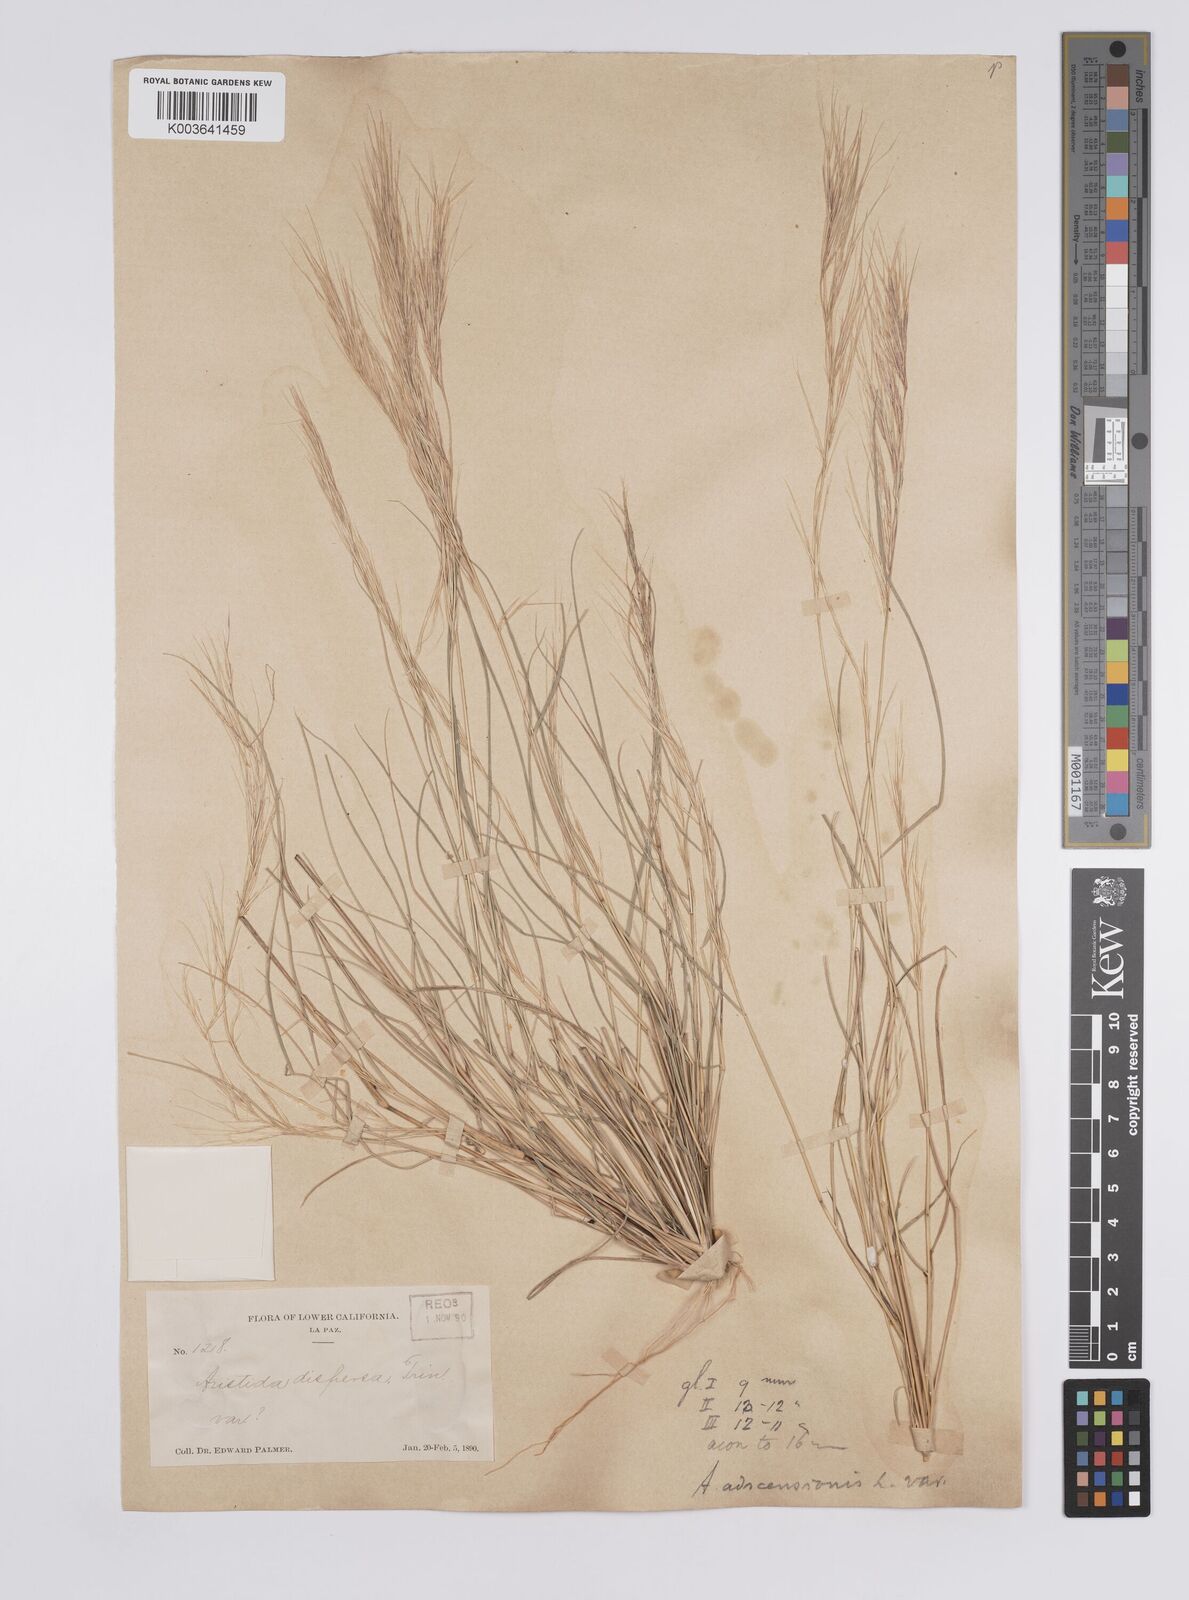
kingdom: Plantae
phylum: Tracheophyta
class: Liliopsida
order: Poales
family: Poaceae
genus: Aristida
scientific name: Aristida adscensionis
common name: Sixweeks threeawn
